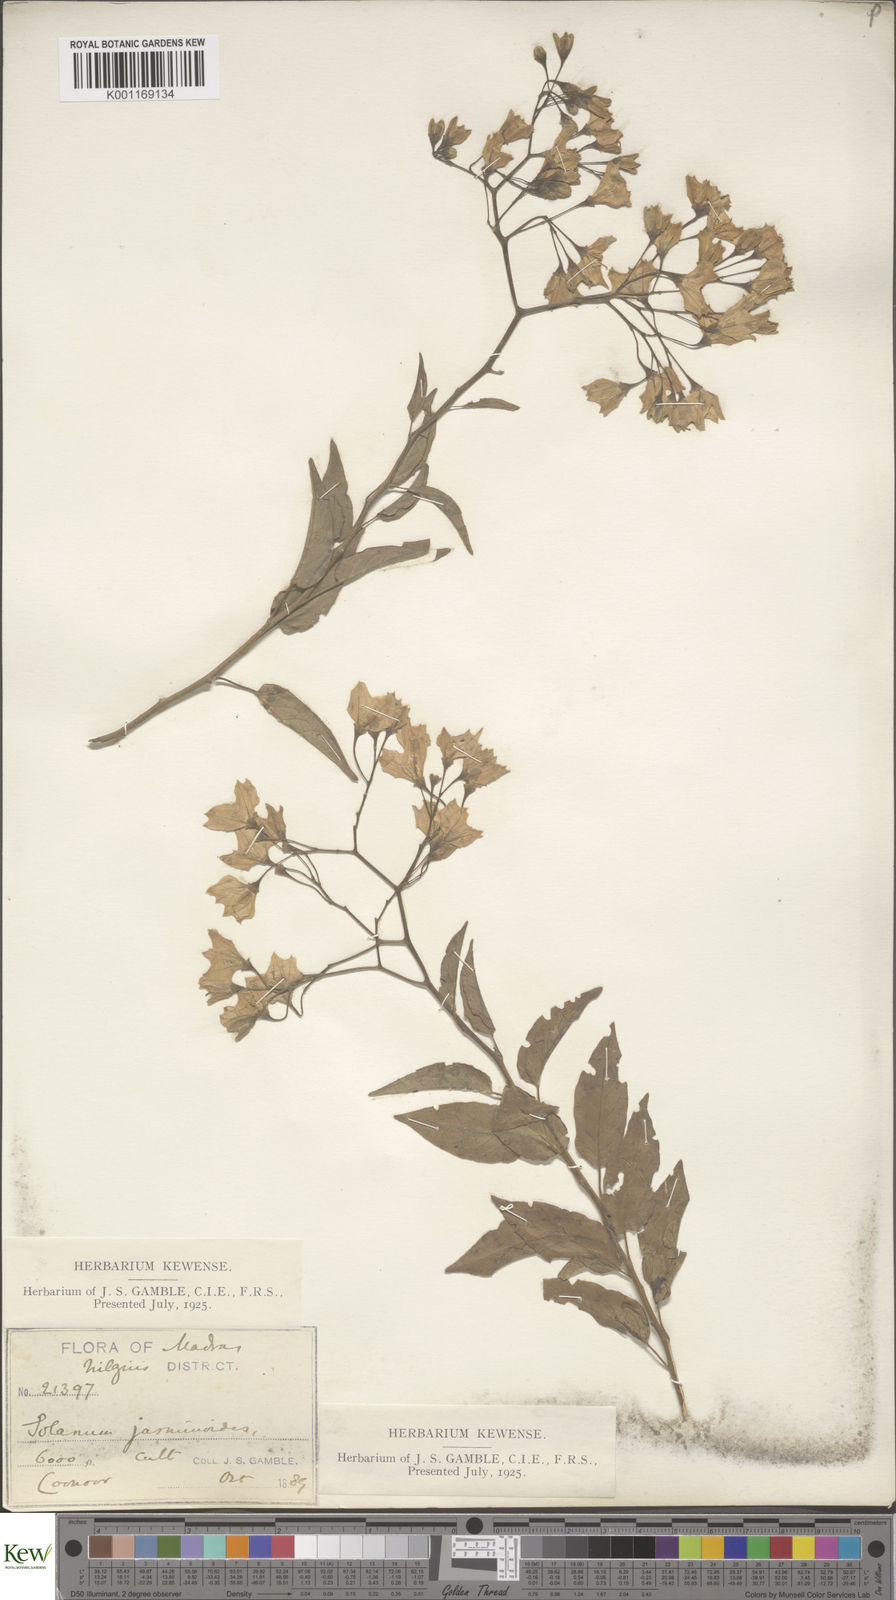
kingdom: Plantae
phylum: Tracheophyta
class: Magnoliopsida
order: Solanales
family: Solanaceae
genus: Solanum
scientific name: Solanum laxum
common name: Nightshade
